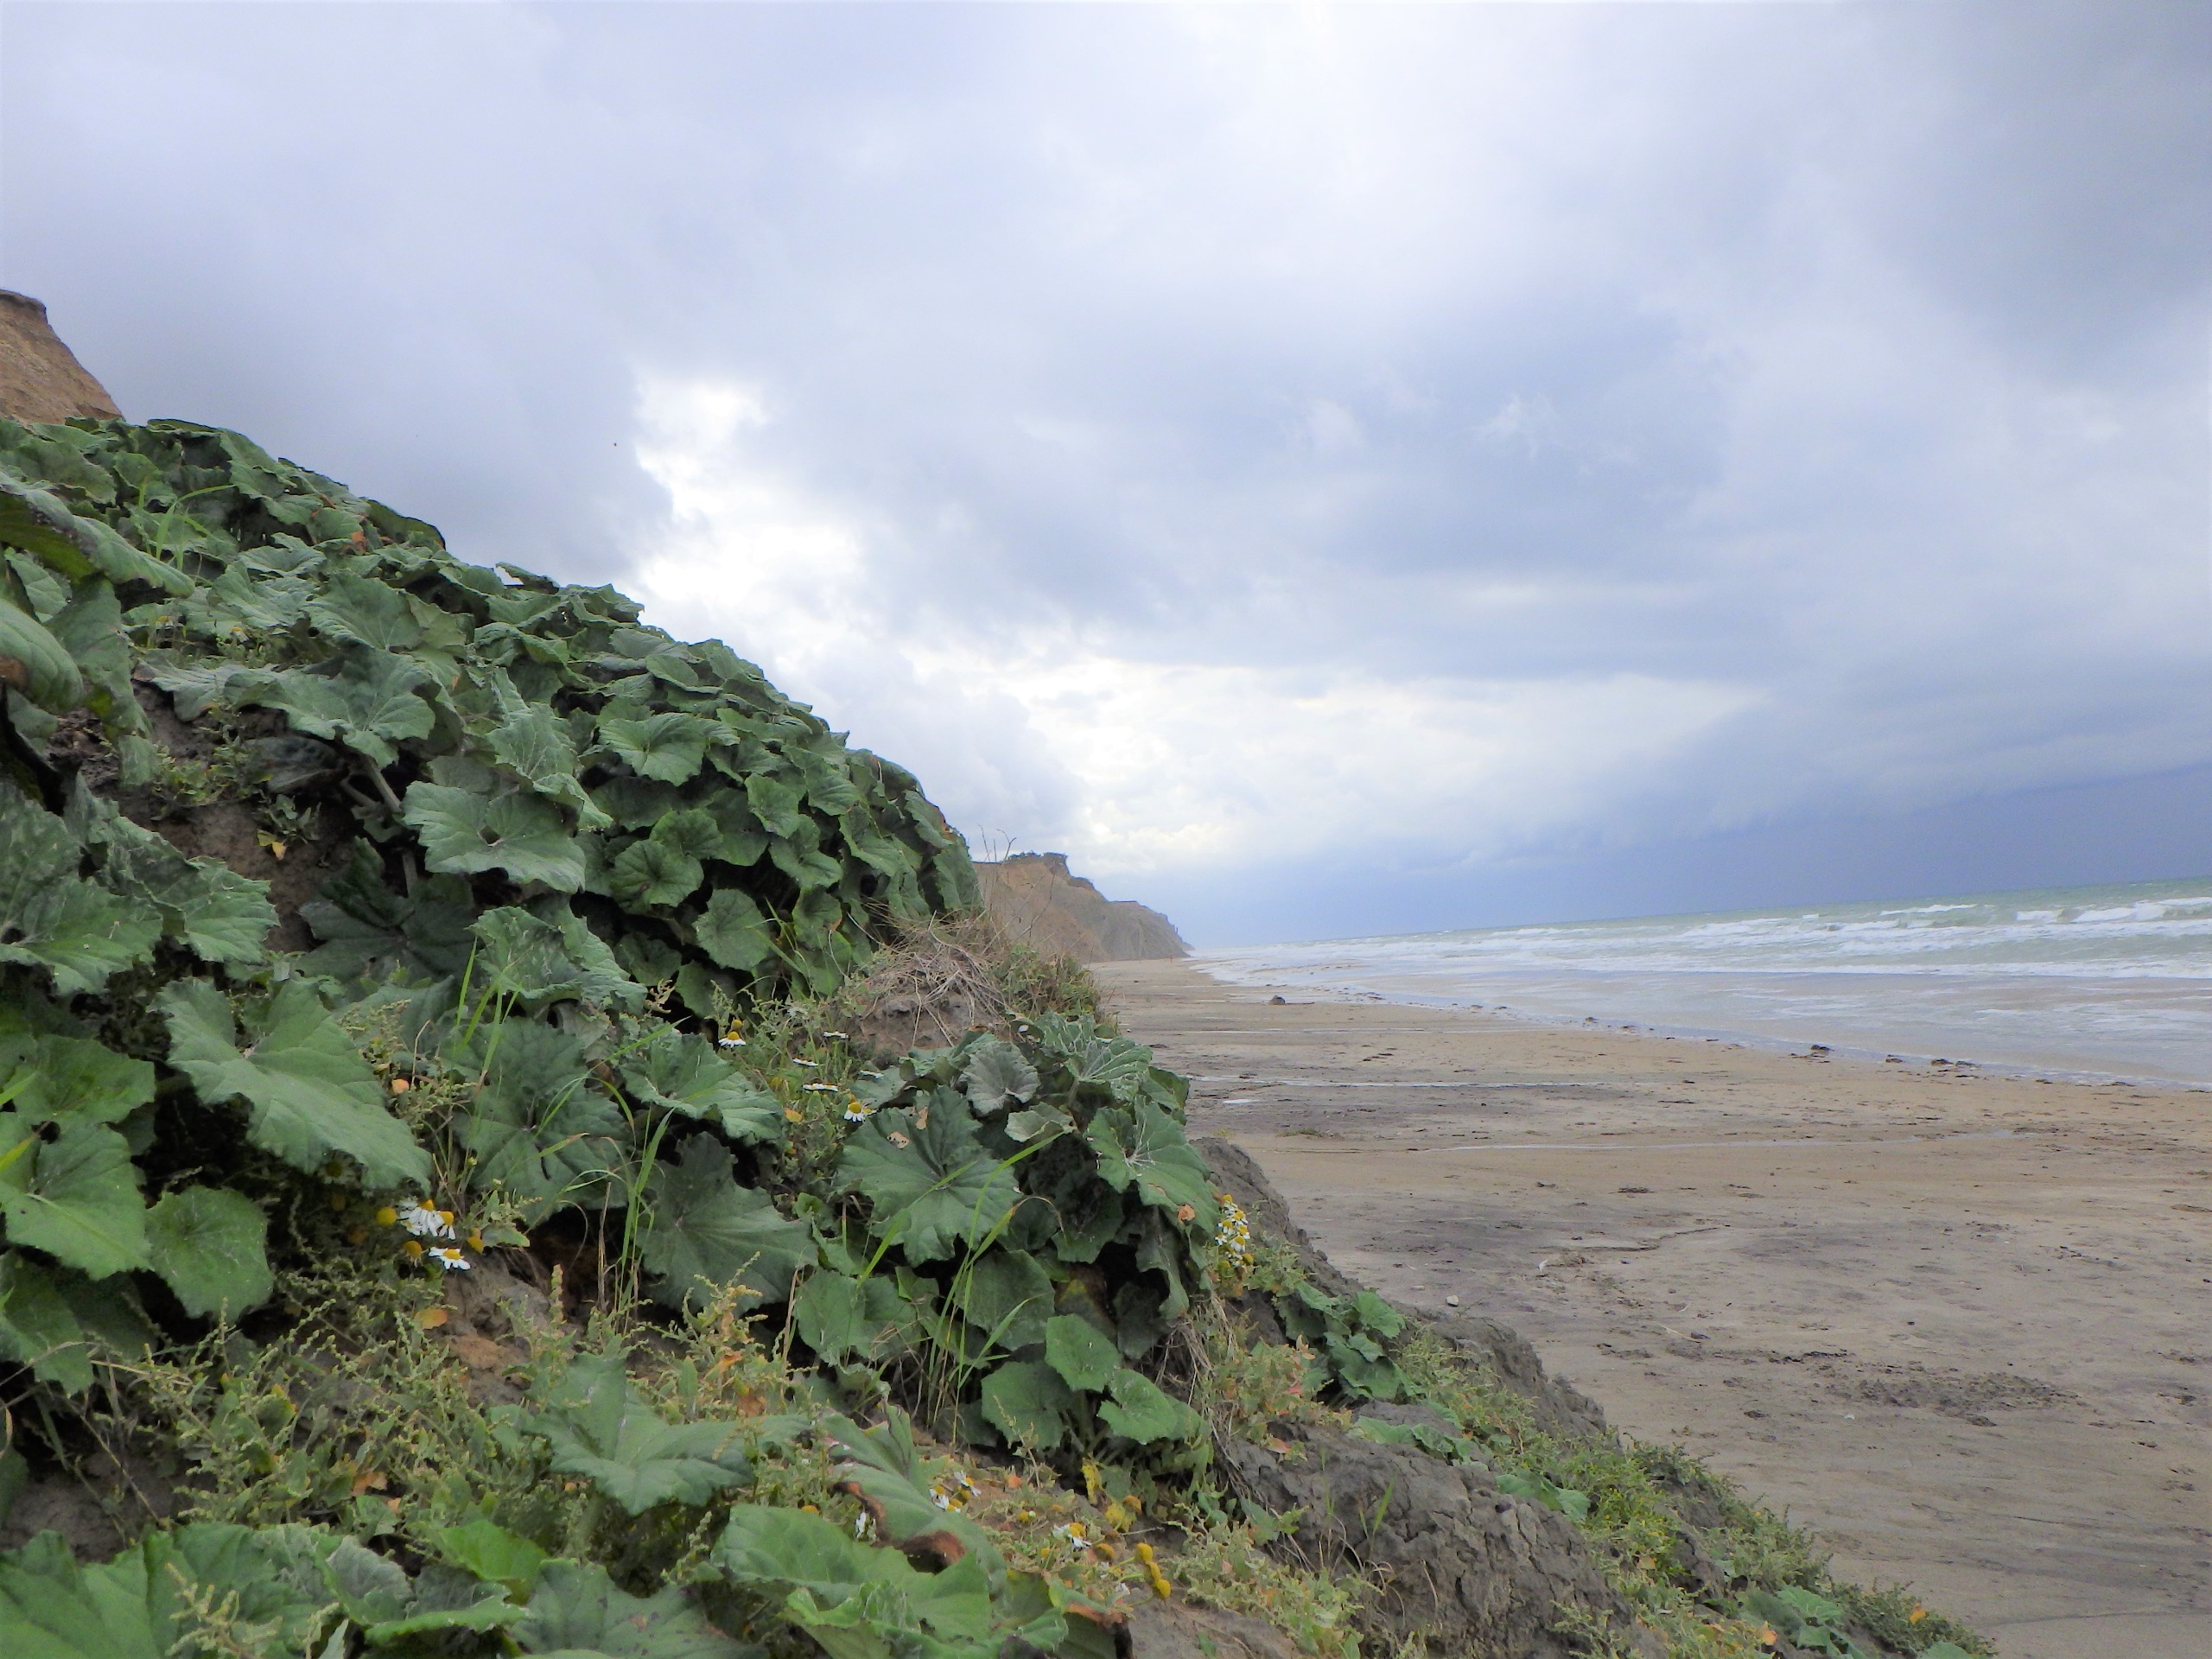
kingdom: Plantae
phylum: Tracheophyta
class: Magnoliopsida
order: Asterales
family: Asteraceae
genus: Tussilago
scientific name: Tussilago farfara
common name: Følfod
